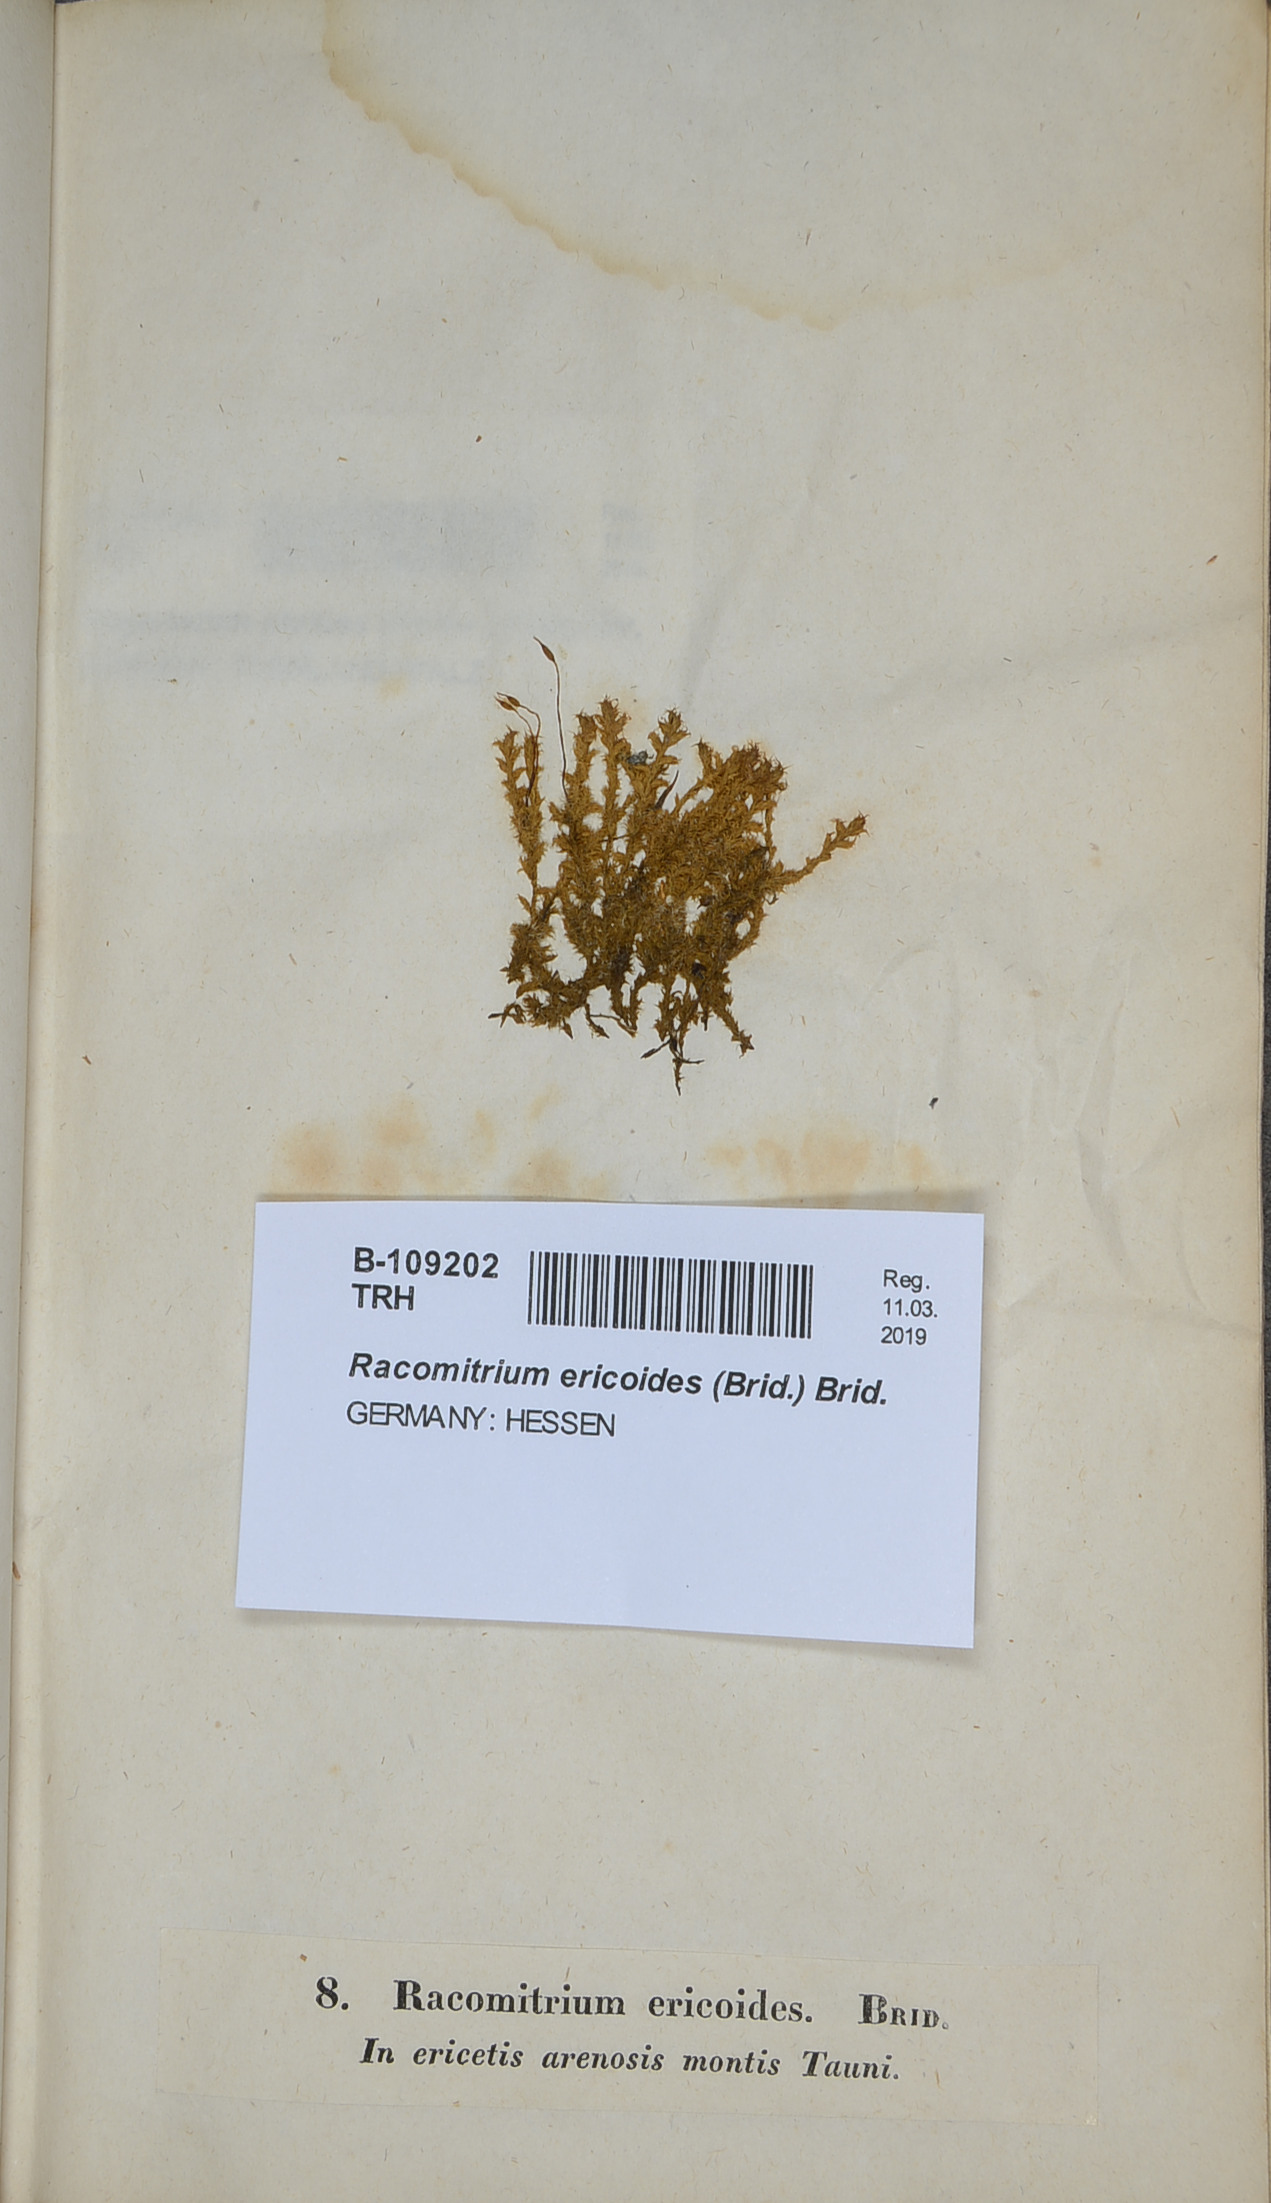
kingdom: Plantae
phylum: Bryophyta
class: Bryopsida
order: Grimmiales
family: Grimmiaceae
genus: Niphotrichum
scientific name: Niphotrichum ericoides
